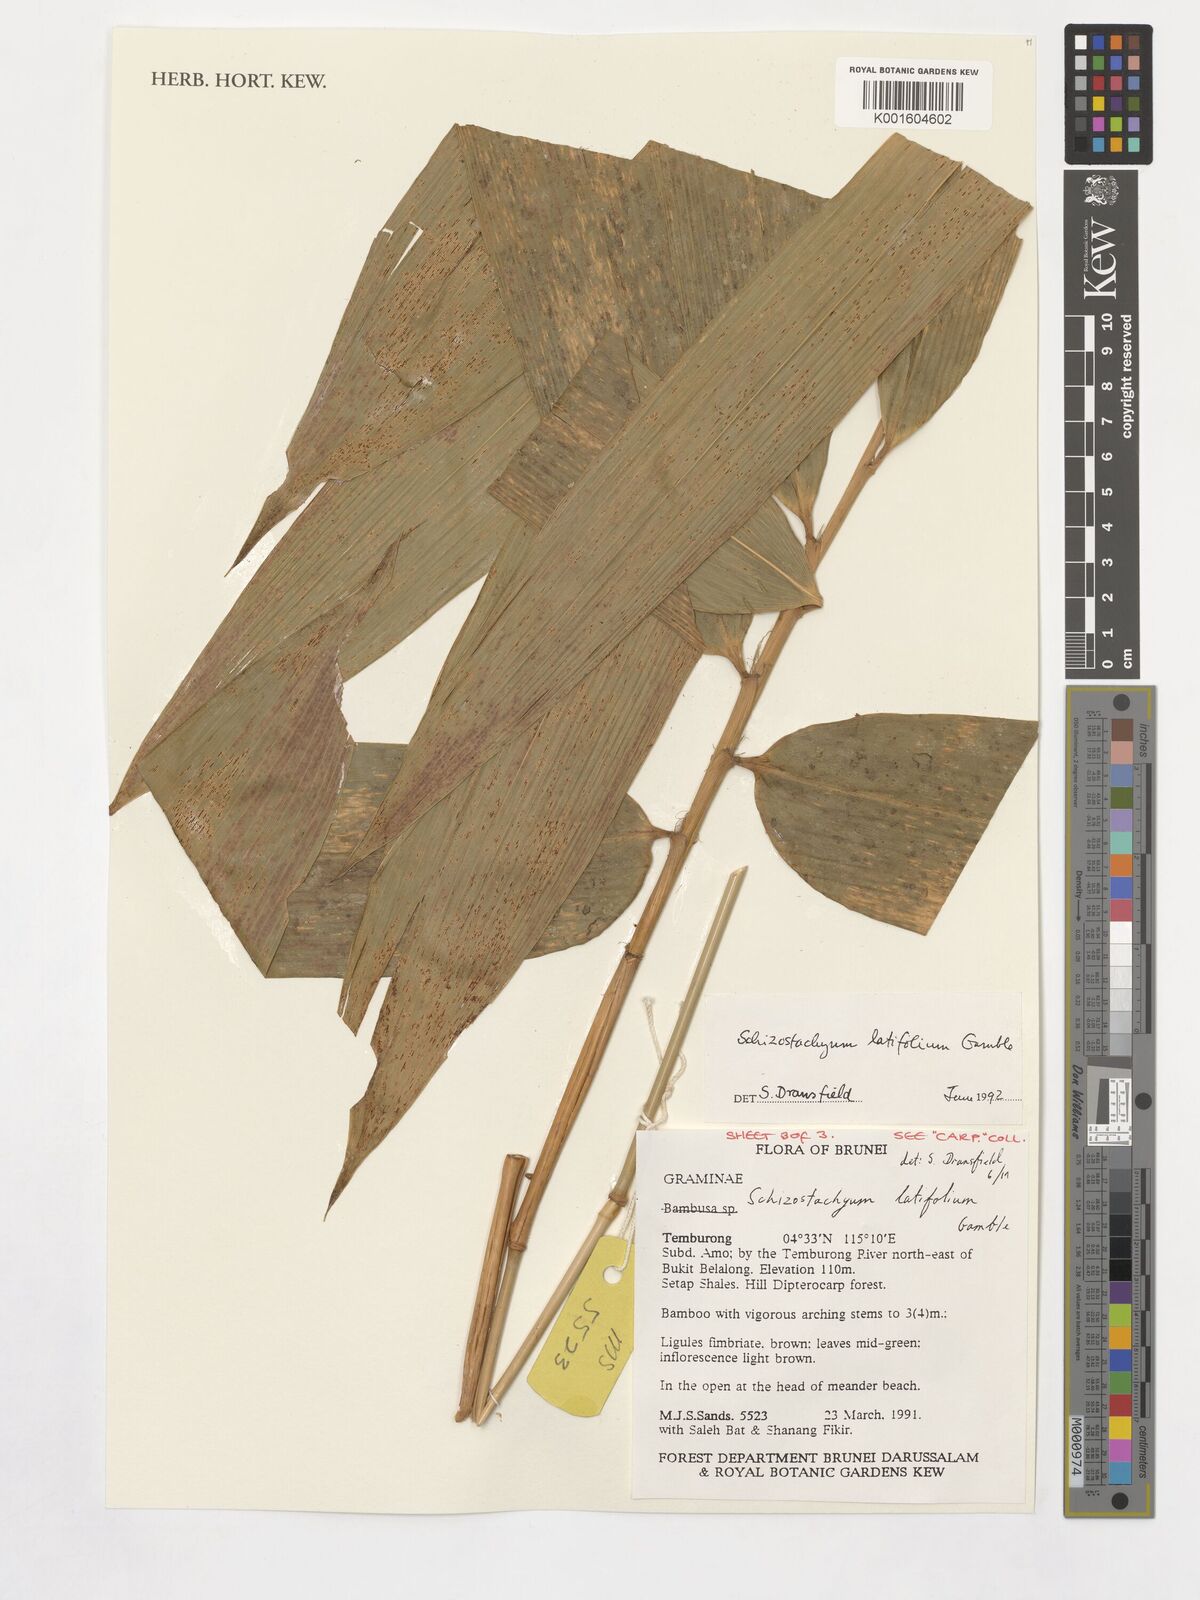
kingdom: Plantae
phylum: Tracheophyta
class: Liliopsida
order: Poales
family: Poaceae
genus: Schizostachyum
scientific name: Schizostachyum latifolium
